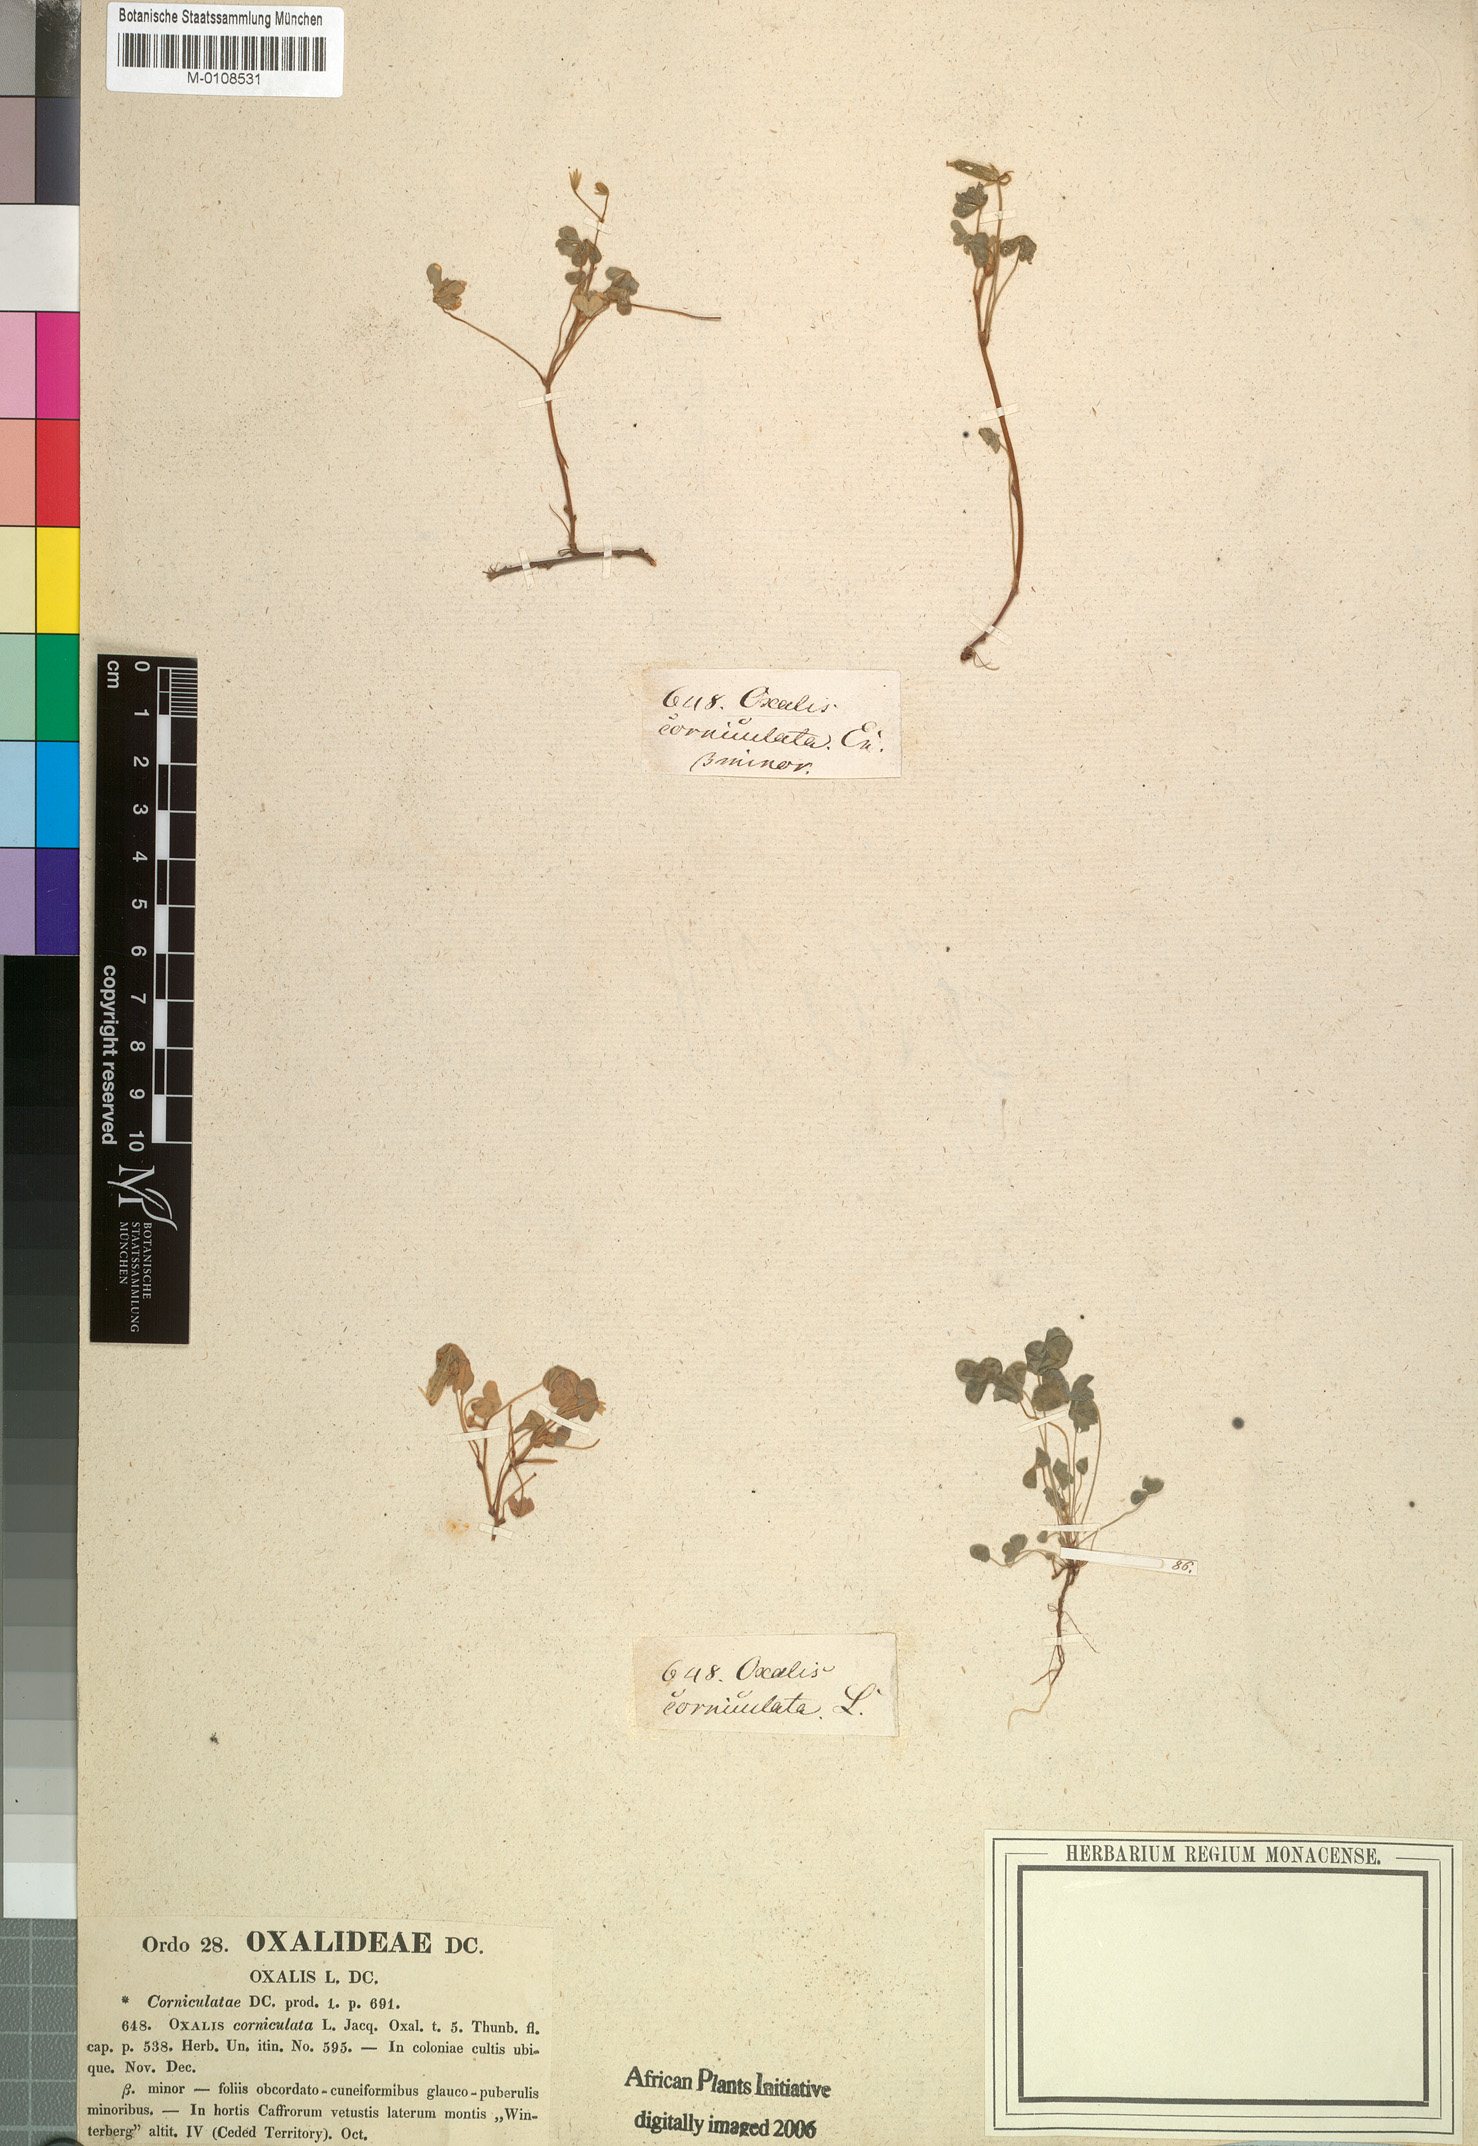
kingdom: Plantae
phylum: Tracheophyta
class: Magnoliopsida
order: Oxalidales
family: Oxalidaceae
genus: Oxalis
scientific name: Oxalis corniculata
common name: Procumbent yellow-sorrel
